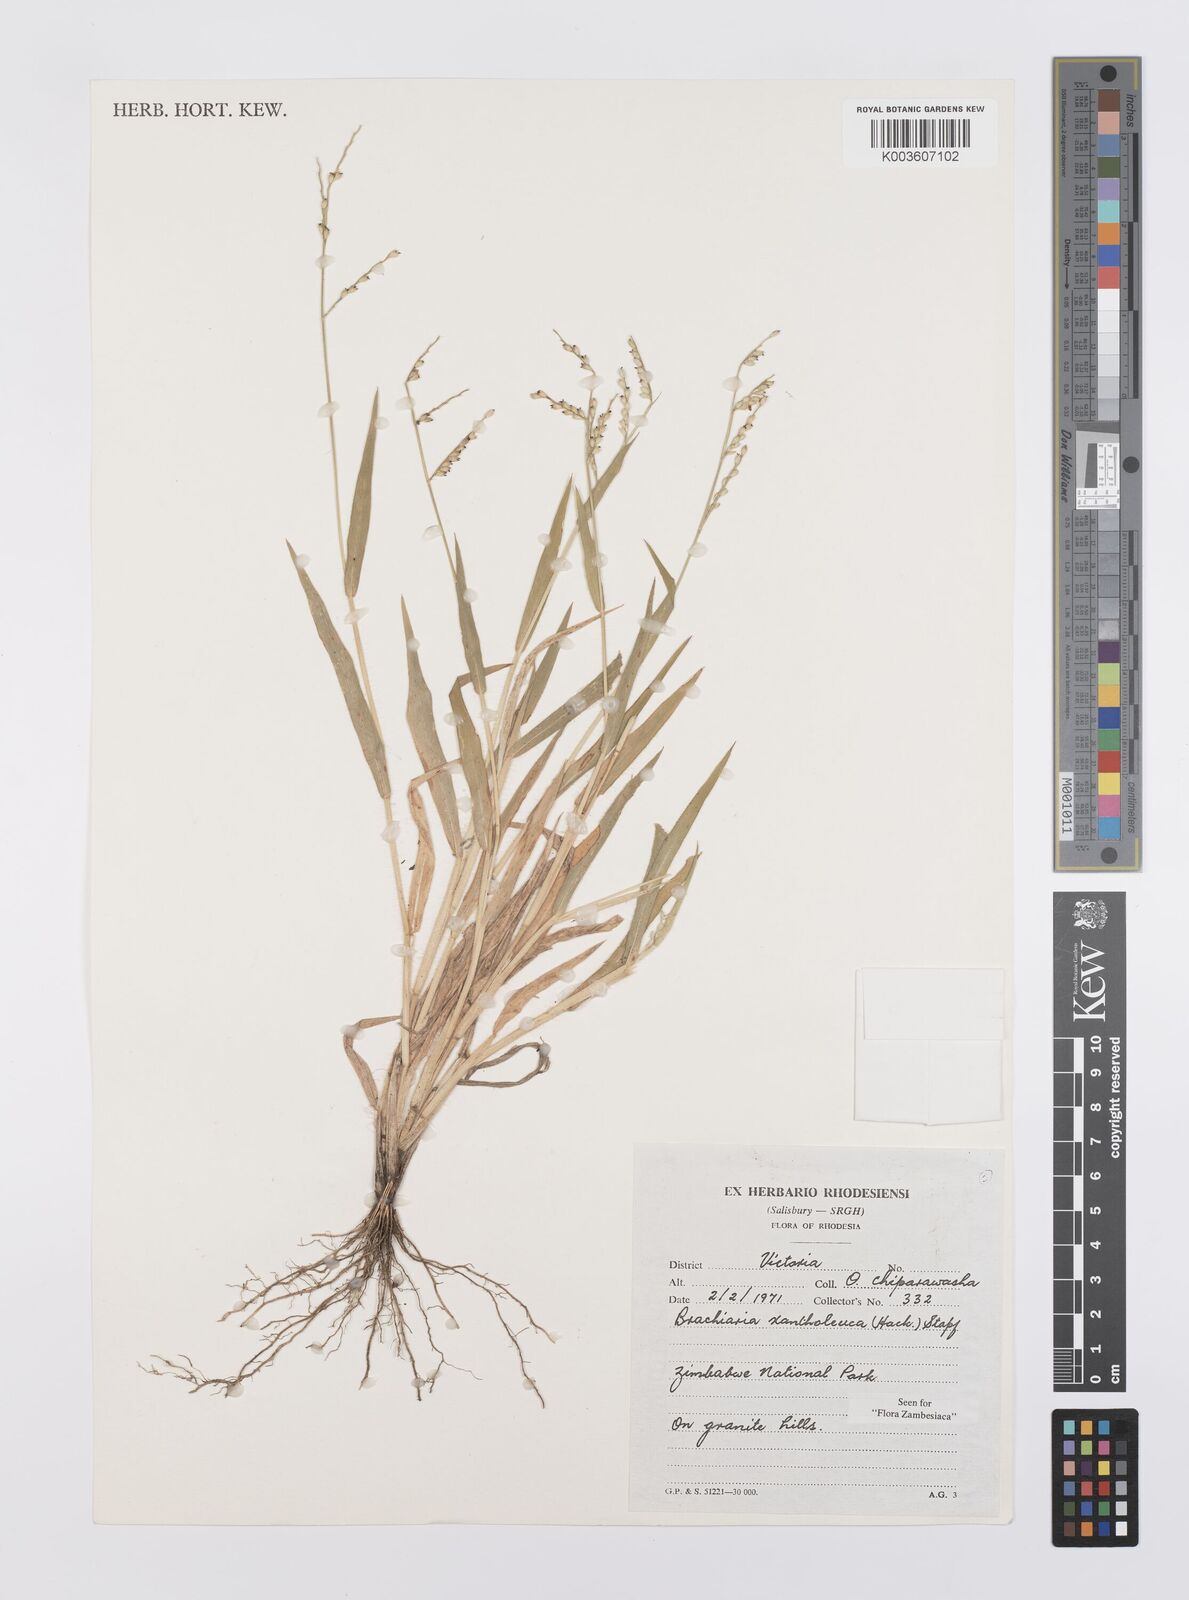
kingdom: Plantae
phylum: Tracheophyta
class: Liliopsida
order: Poales
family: Poaceae
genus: Urochloa
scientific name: Urochloa xantholeuca
